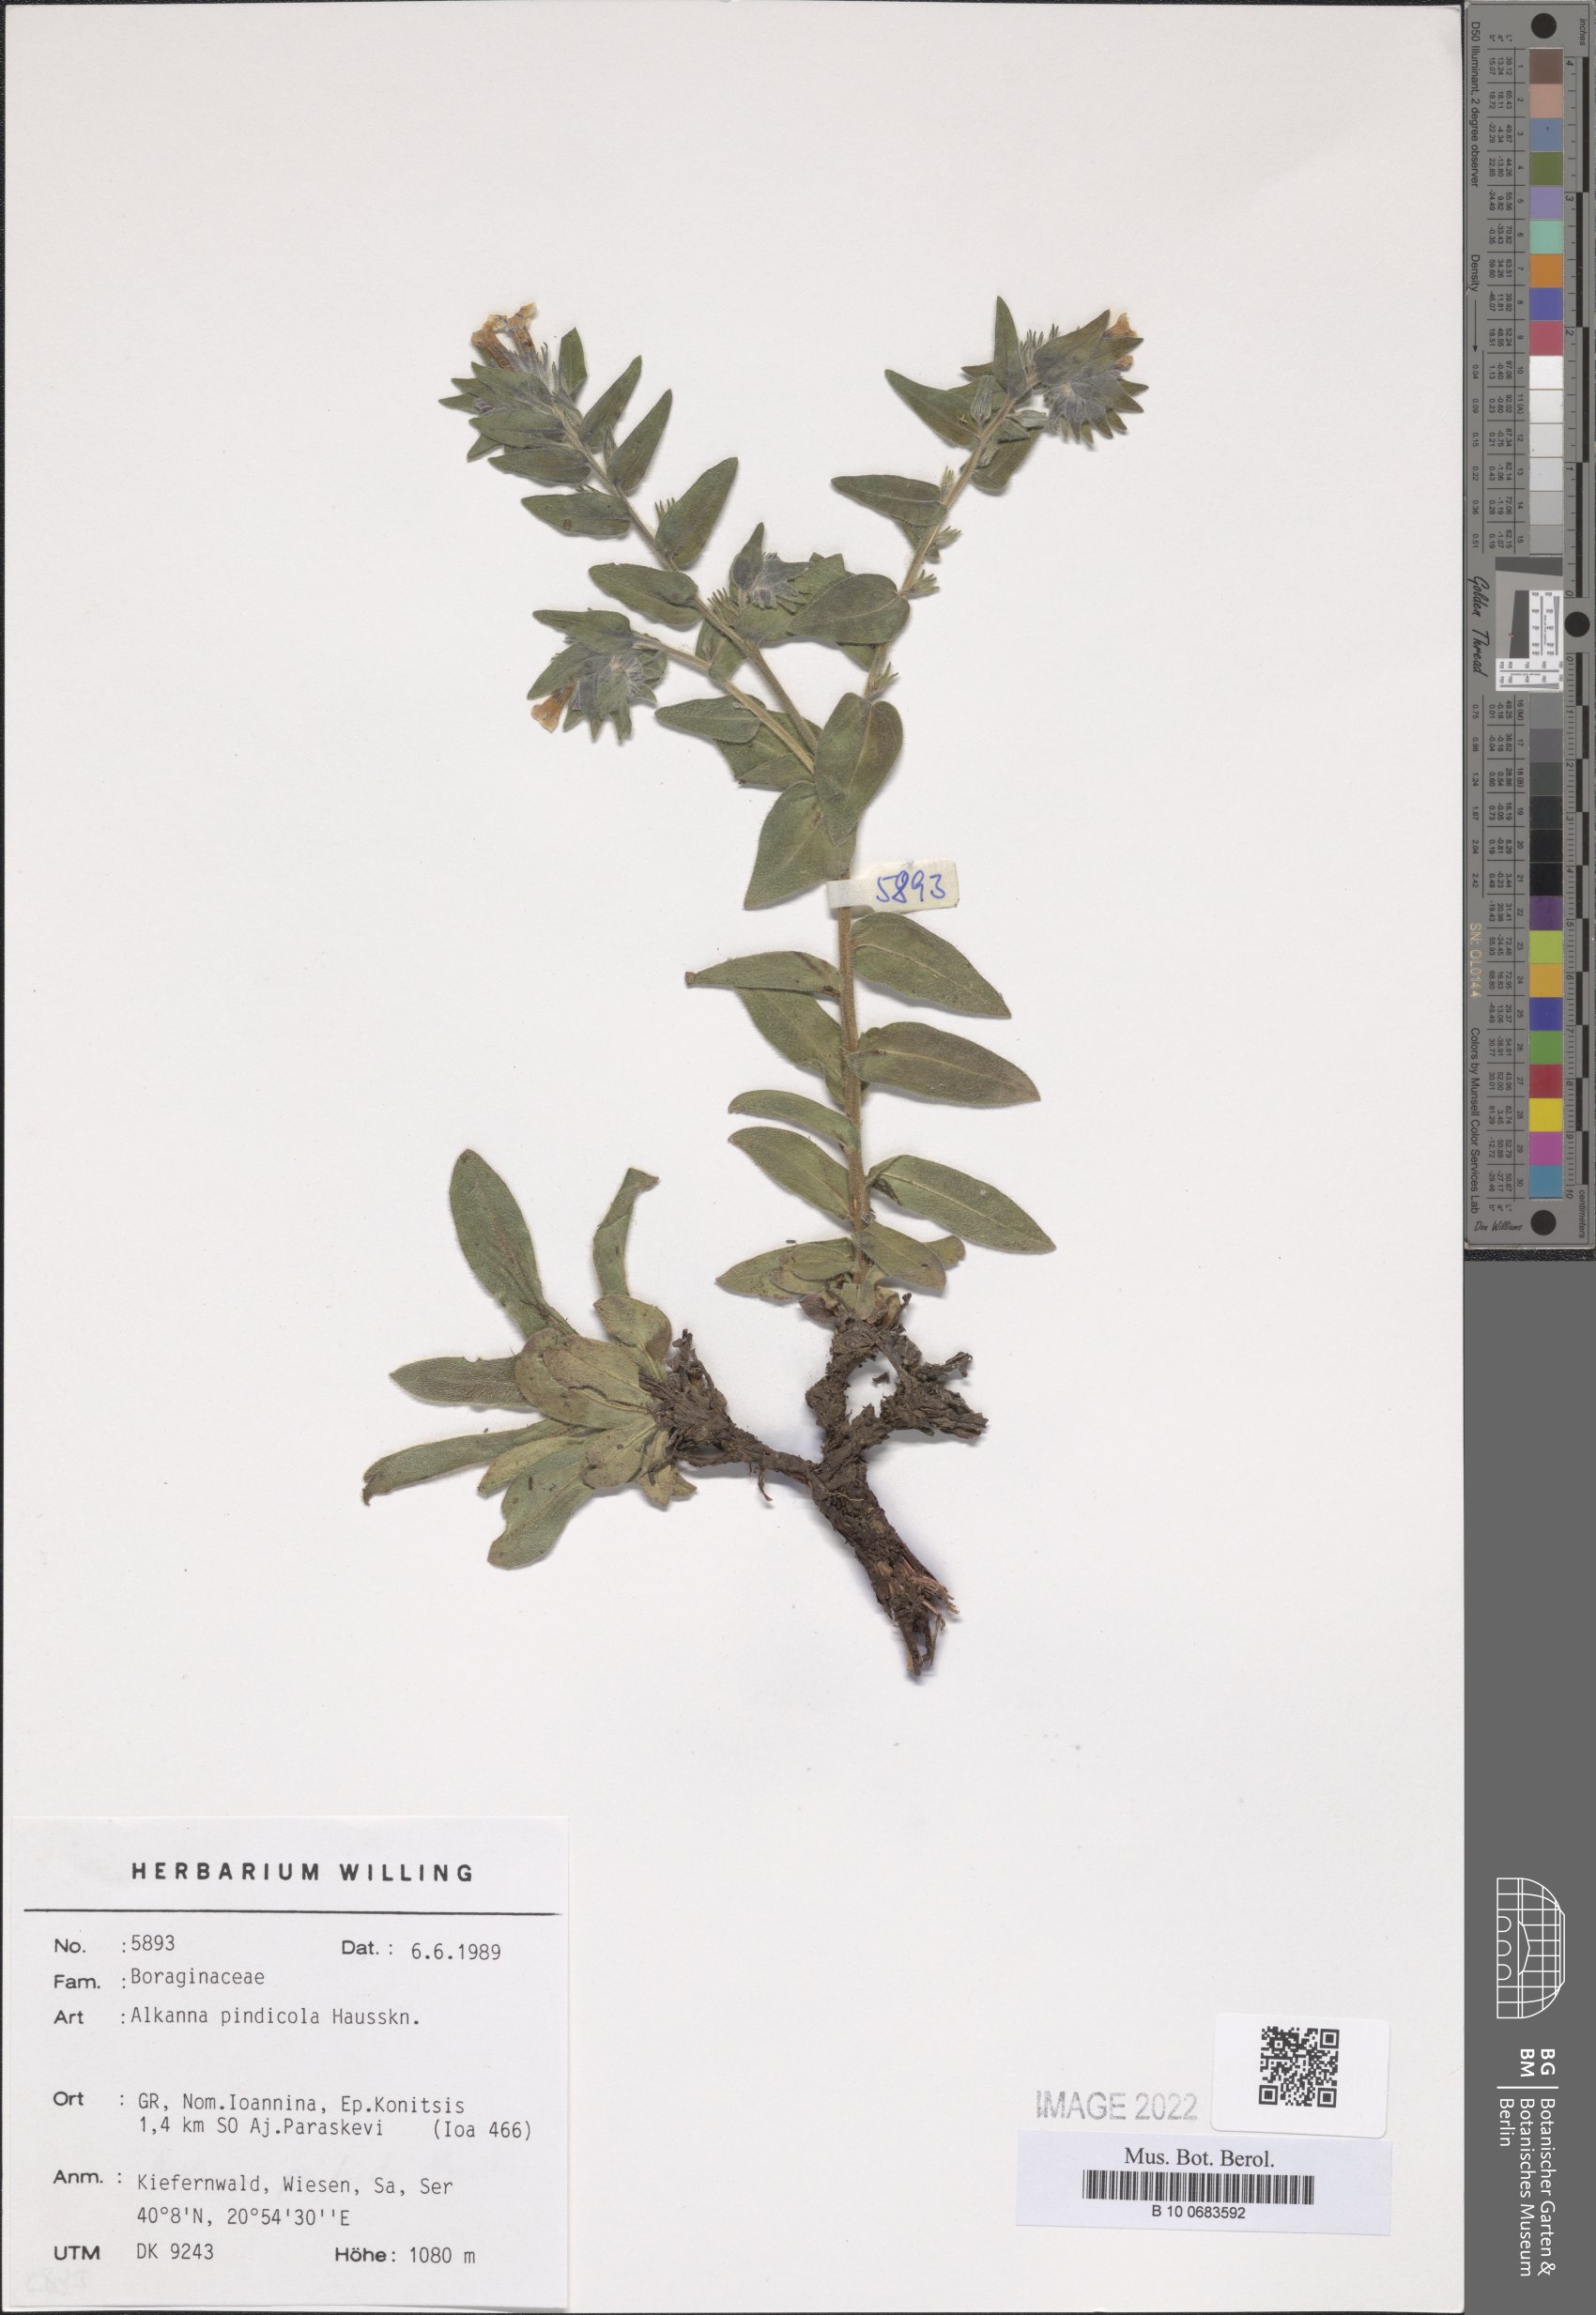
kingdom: Plantae
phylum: Tracheophyta
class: Magnoliopsida
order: Boraginales
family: Boraginaceae
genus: Alkanna
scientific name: Alkanna pindicola
